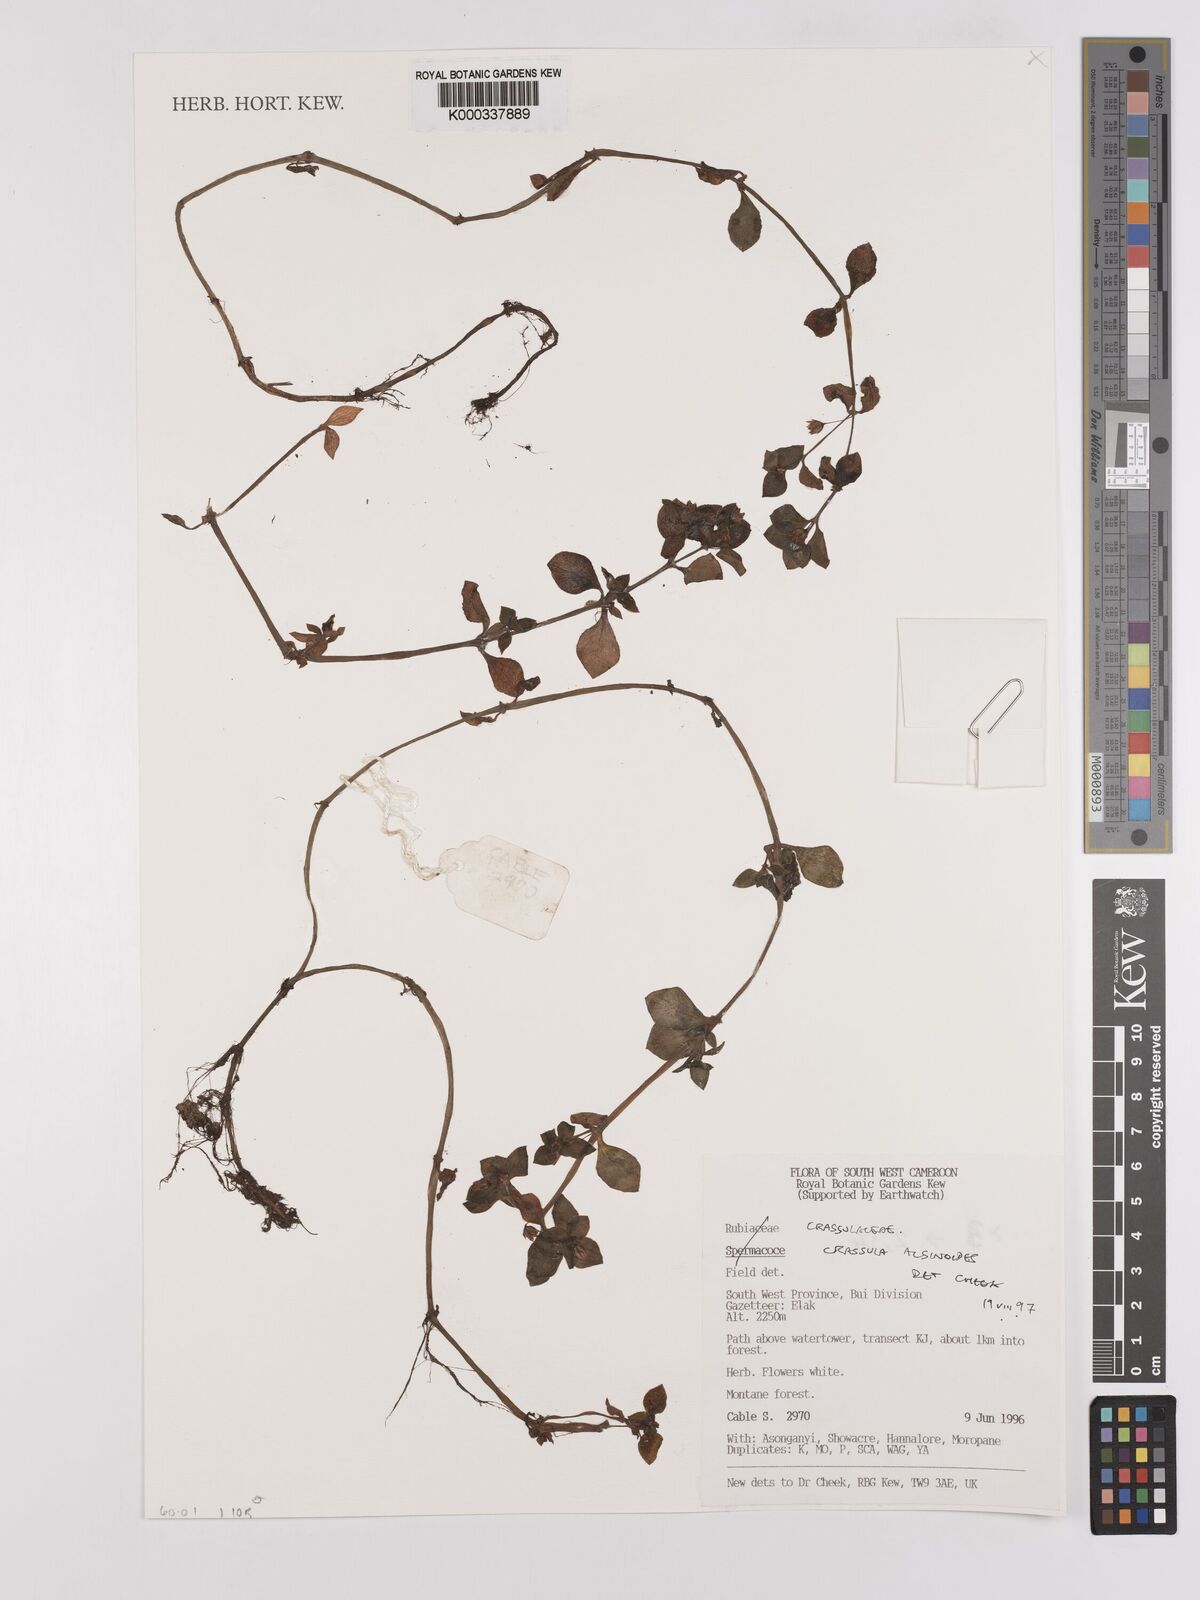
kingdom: Plantae
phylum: Tracheophyta
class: Magnoliopsida
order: Saxifragales
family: Crassulaceae
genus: Crassula
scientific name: Crassula alsinoides
